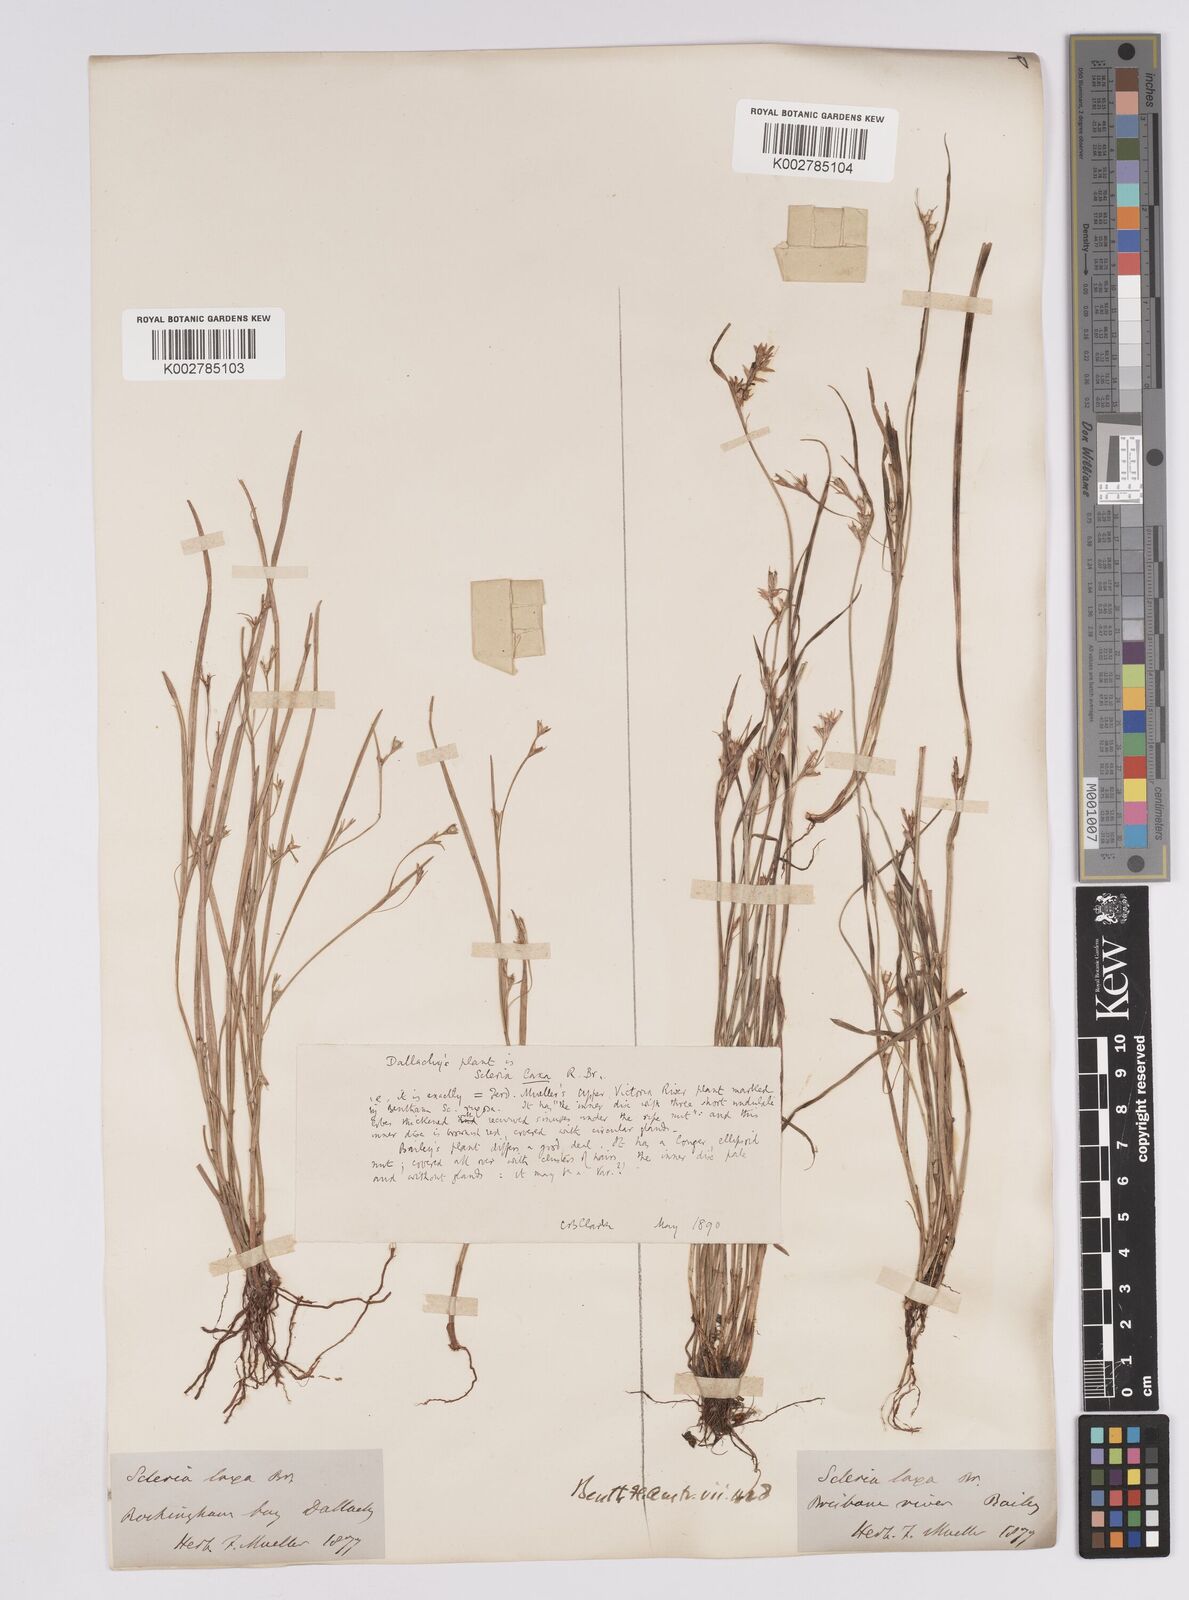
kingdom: Plantae
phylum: Tracheophyta
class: Liliopsida
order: Poales
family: Cyperaceae
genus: Scleria
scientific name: Scleria laxa
